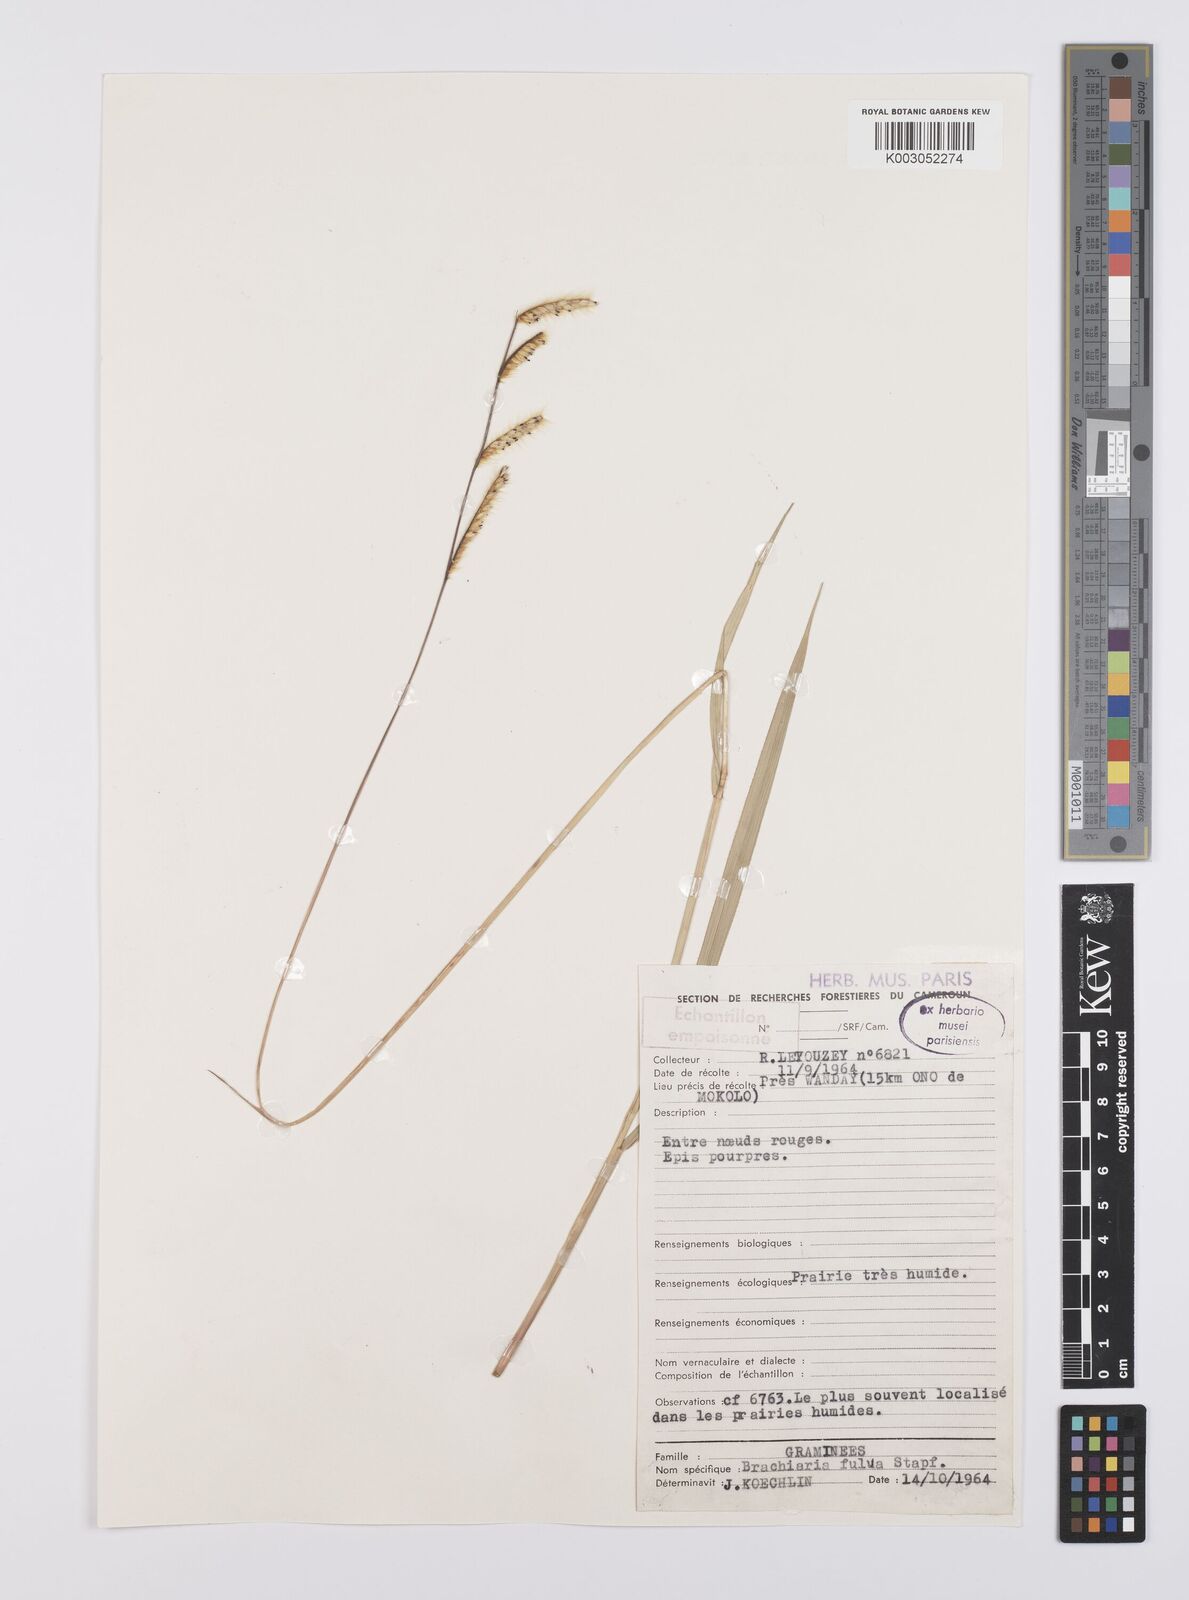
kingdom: Plantae
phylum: Tracheophyta
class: Liliopsida
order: Poales
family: Poaceae
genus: Urochloa
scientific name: Urochloa jubata
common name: Buffalograss
